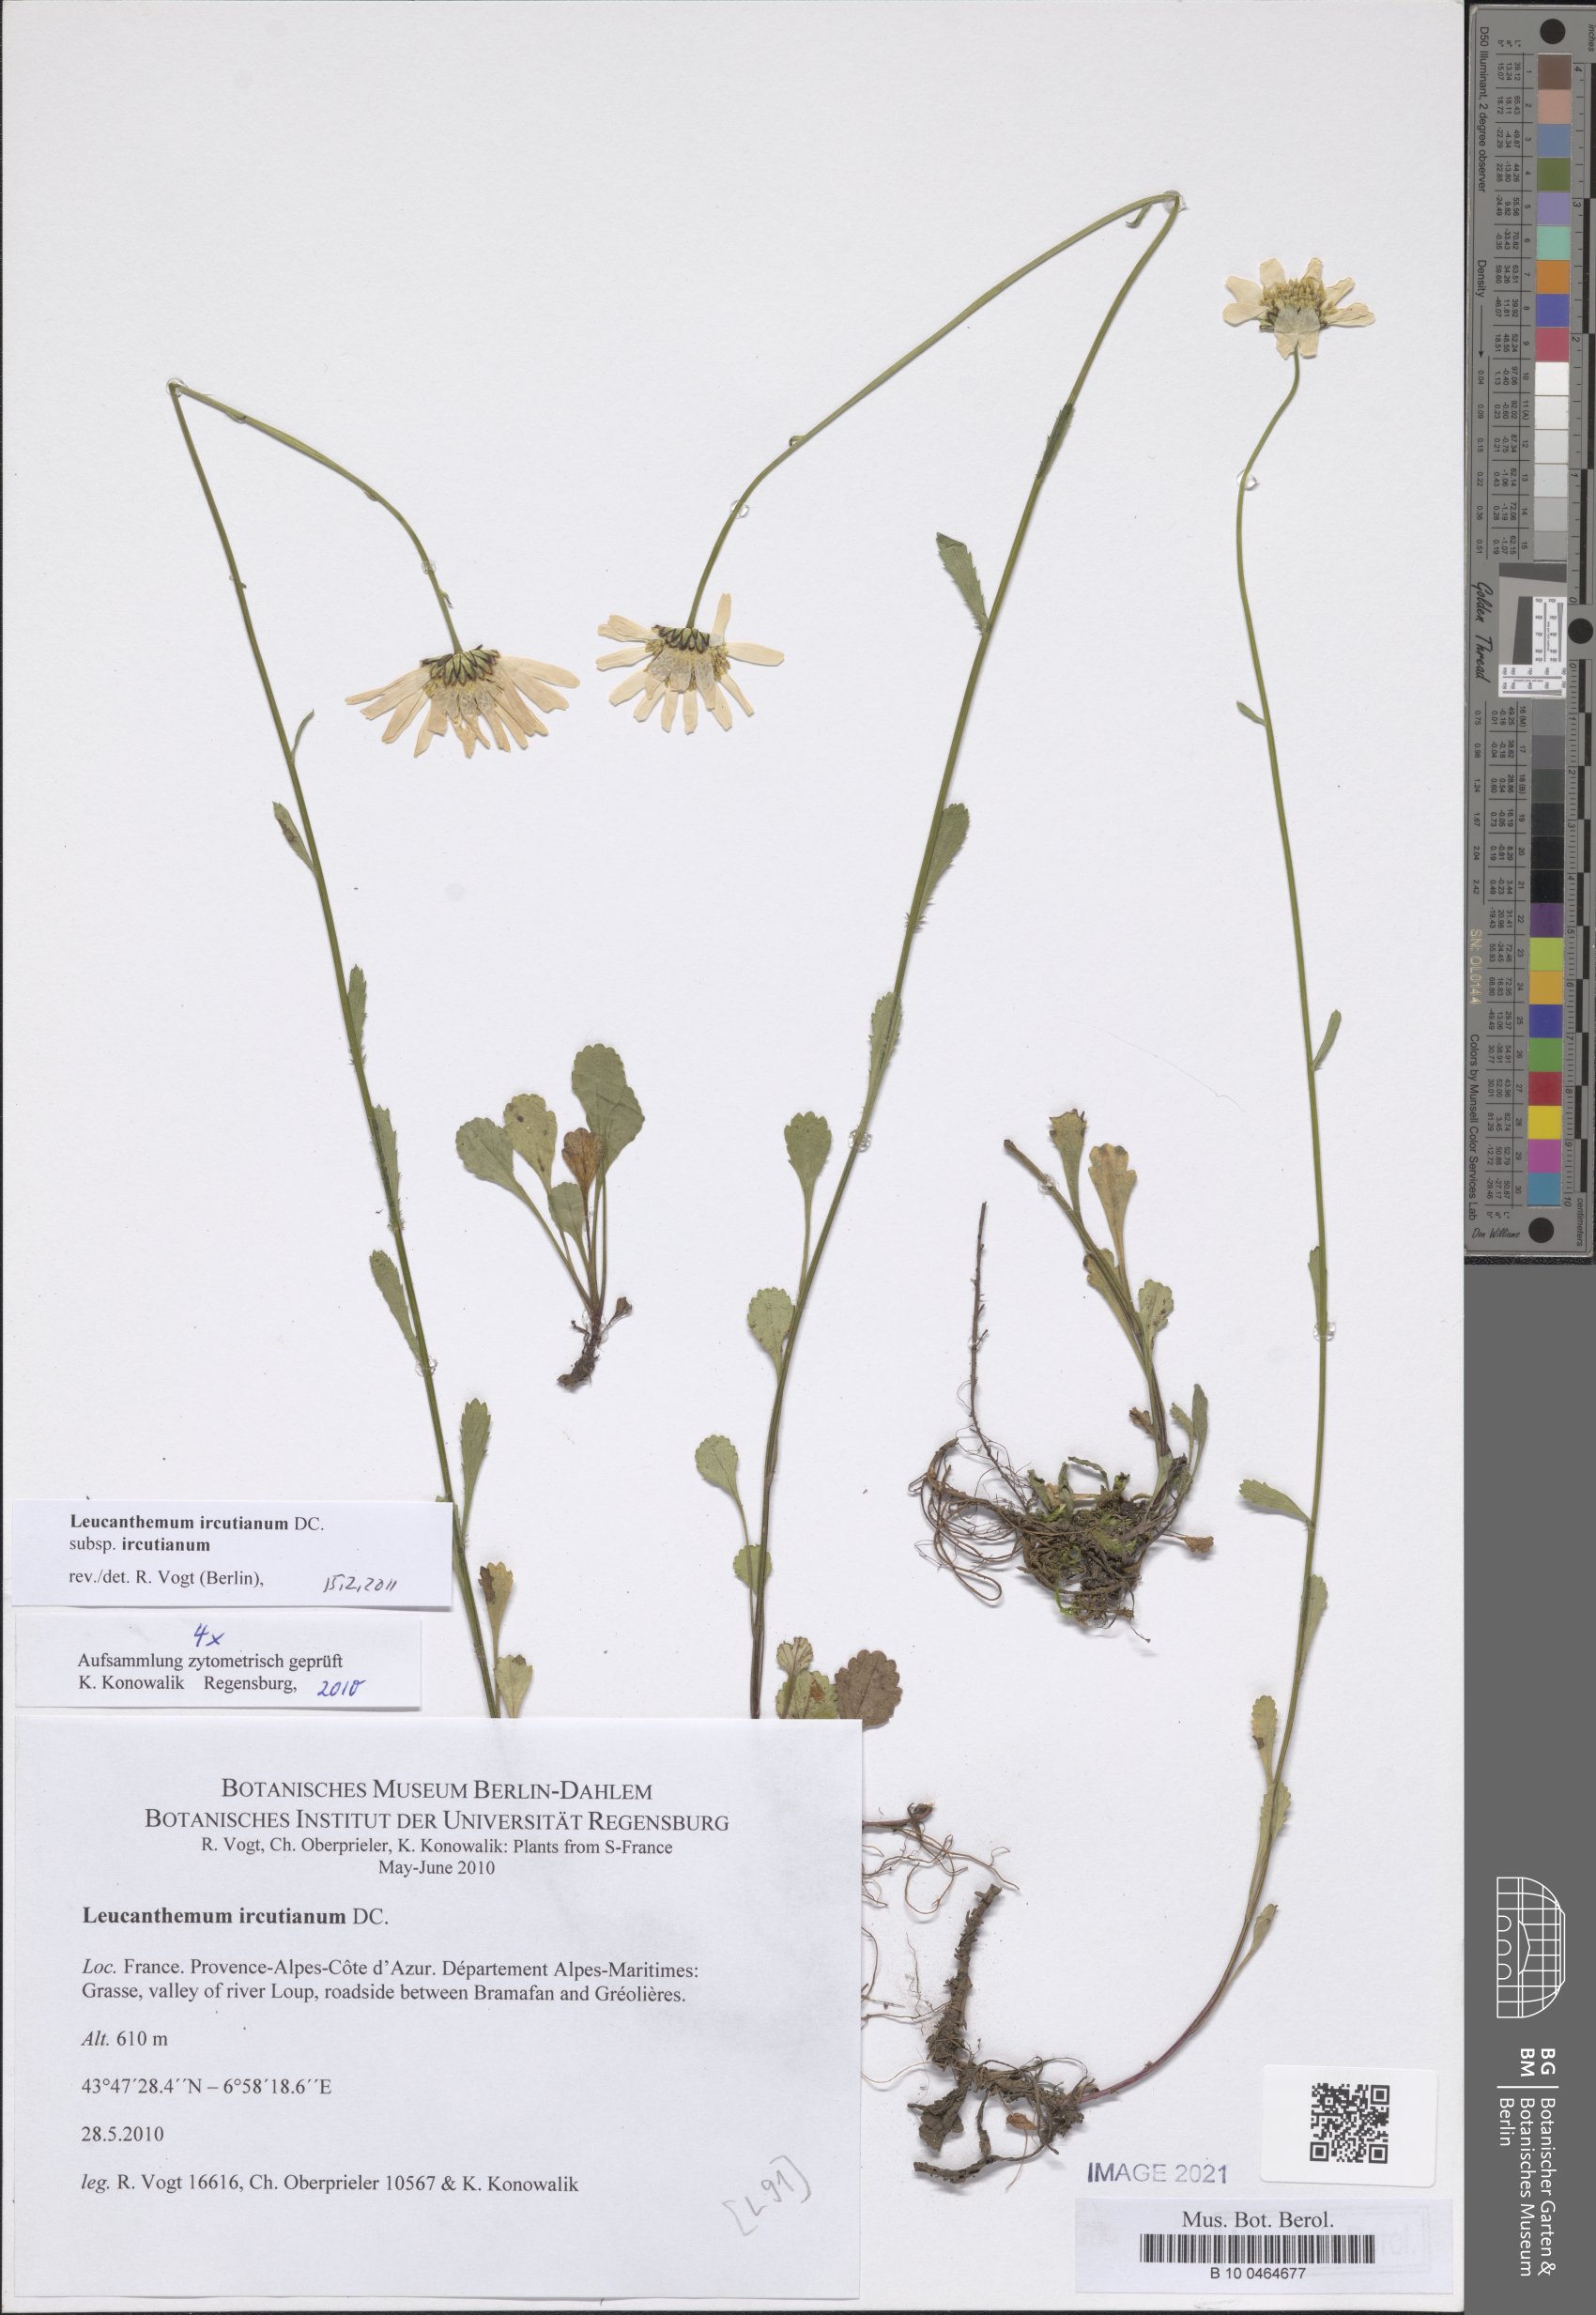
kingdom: Plantae
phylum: Tracheophyta
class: Magnoliopsida
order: Asterales
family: Asteraceae
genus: Leucanthemum
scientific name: Leucanthemum ircutianum
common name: Daisy
